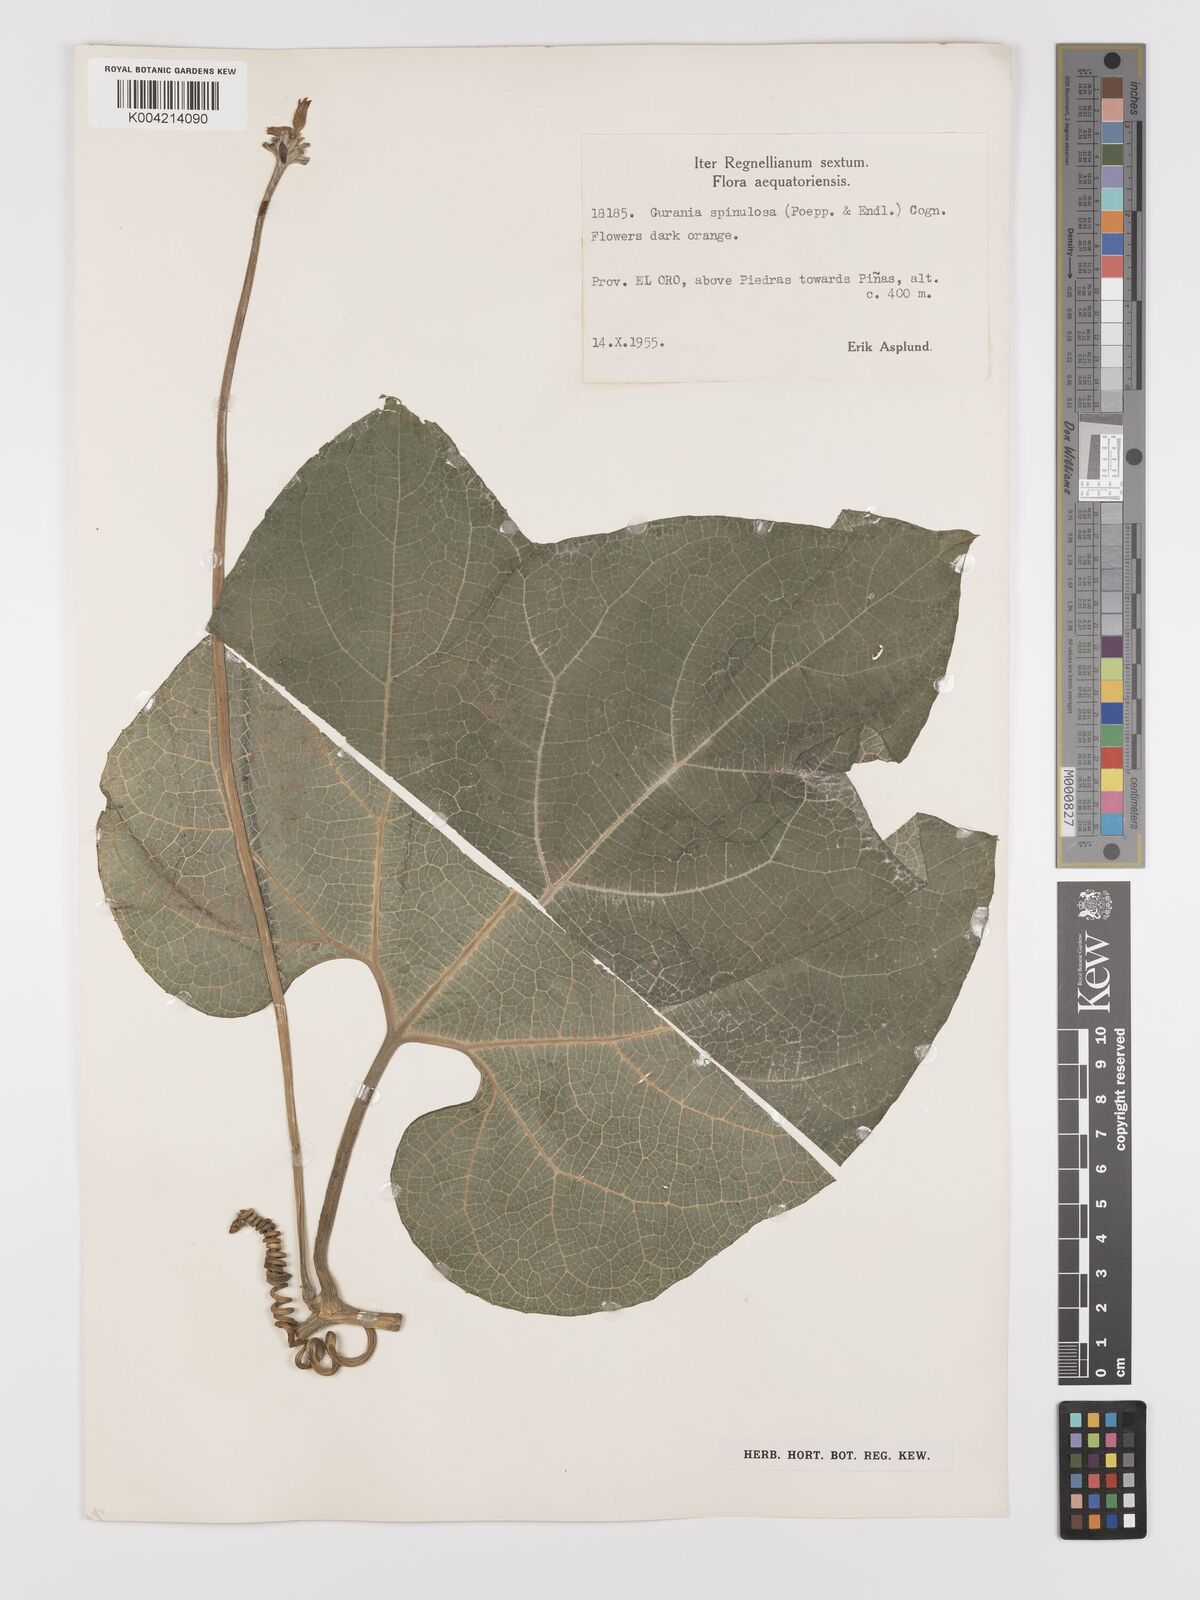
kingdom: Plantae
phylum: Tracheophyta
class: Magnoliopsida
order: Cucurbitales
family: Cucurbitaceae
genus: Gurania
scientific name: Gurania lobata
